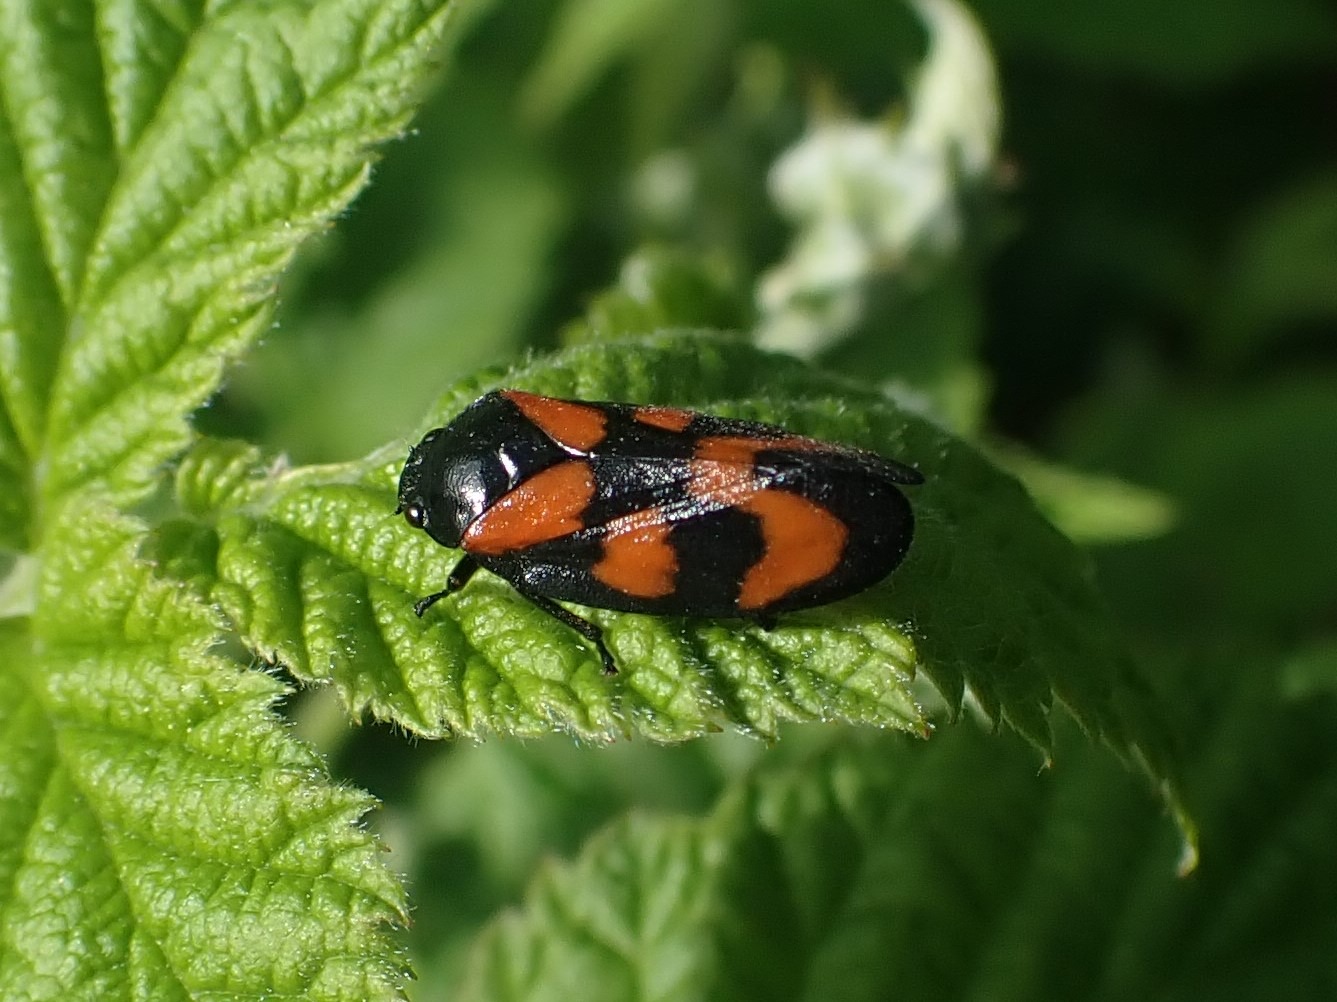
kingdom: Animalia
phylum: Arthropoda
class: Insecta
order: Hemiptera
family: Cercopidae
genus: Cercopis
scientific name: Cercopis vulnerata
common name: Blodcikade
